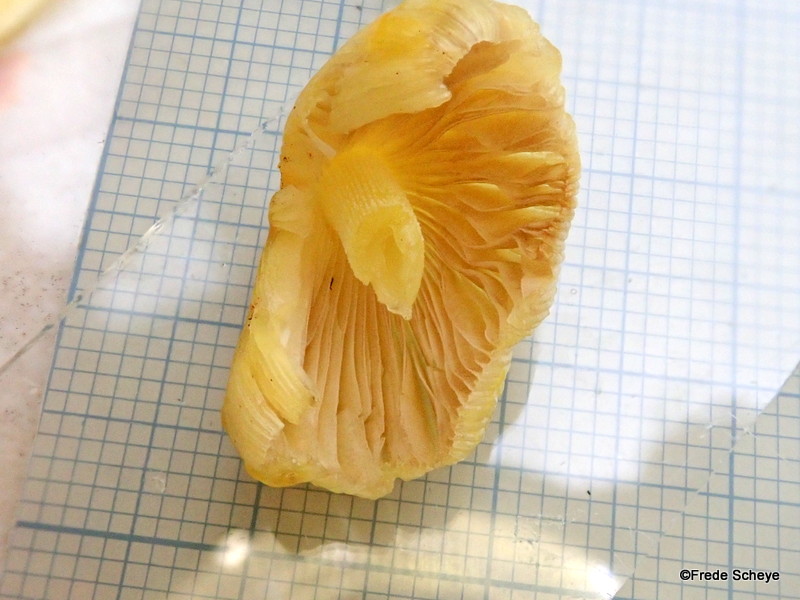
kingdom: Fungi
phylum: Basidiomycota
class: Agaricomycetes
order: Agaricales
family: Hygrophoraceae
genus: Hygrocybe
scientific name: Hygrocybe chlorophana
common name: gul vokshat
